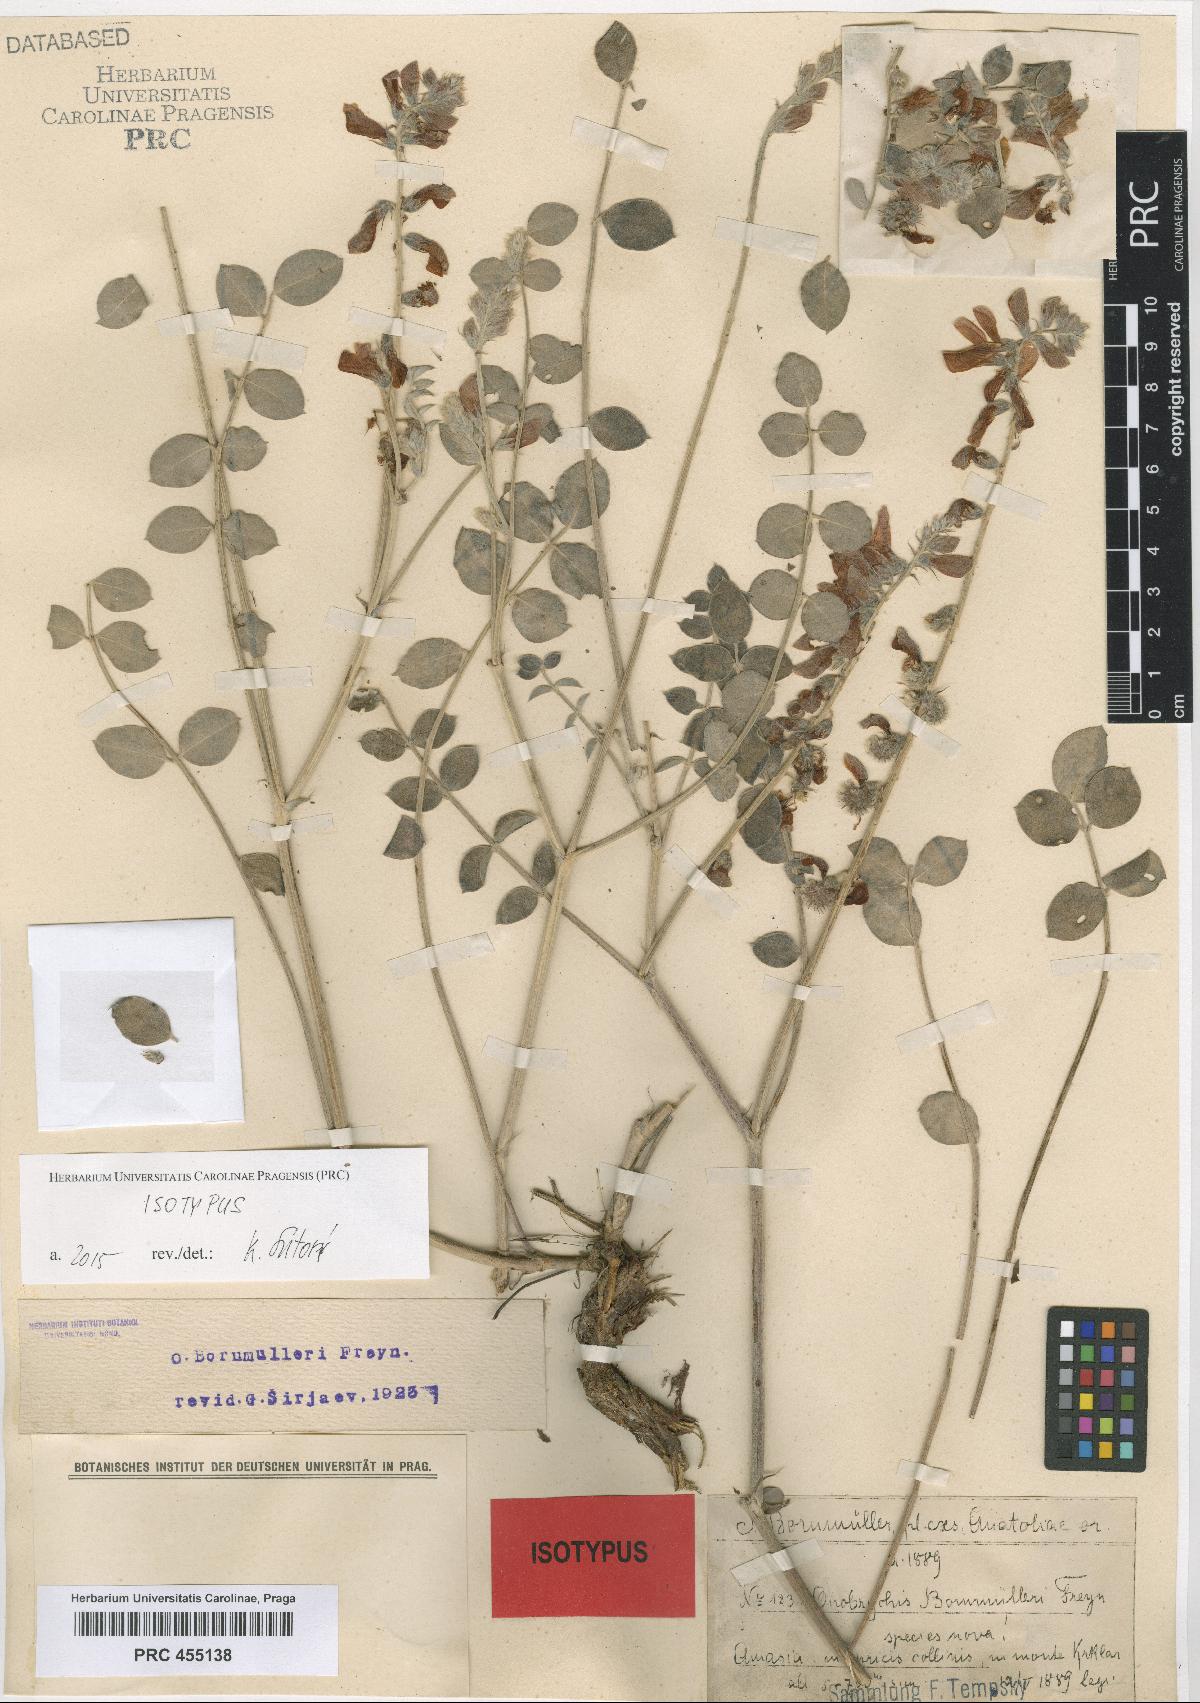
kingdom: Plantae
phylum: Tracheophyta
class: Magnoliopsida
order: Fabales
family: Fabaceae
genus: Onobrychis
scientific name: Onobrychis bornmuelleri
